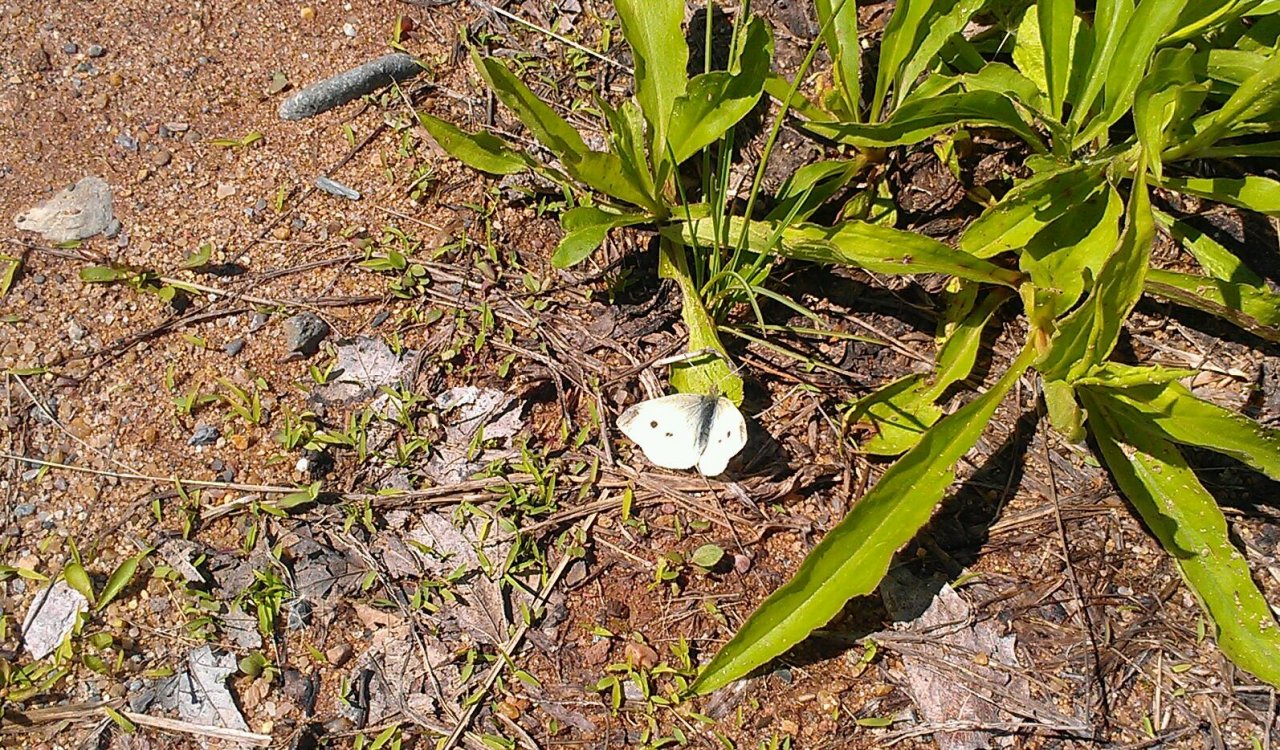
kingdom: Animalia
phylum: Arthropoda
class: Insecta
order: Lepidoptera
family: Pieridae
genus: Pieris
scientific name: Pieris rapae
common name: Cabbage White
